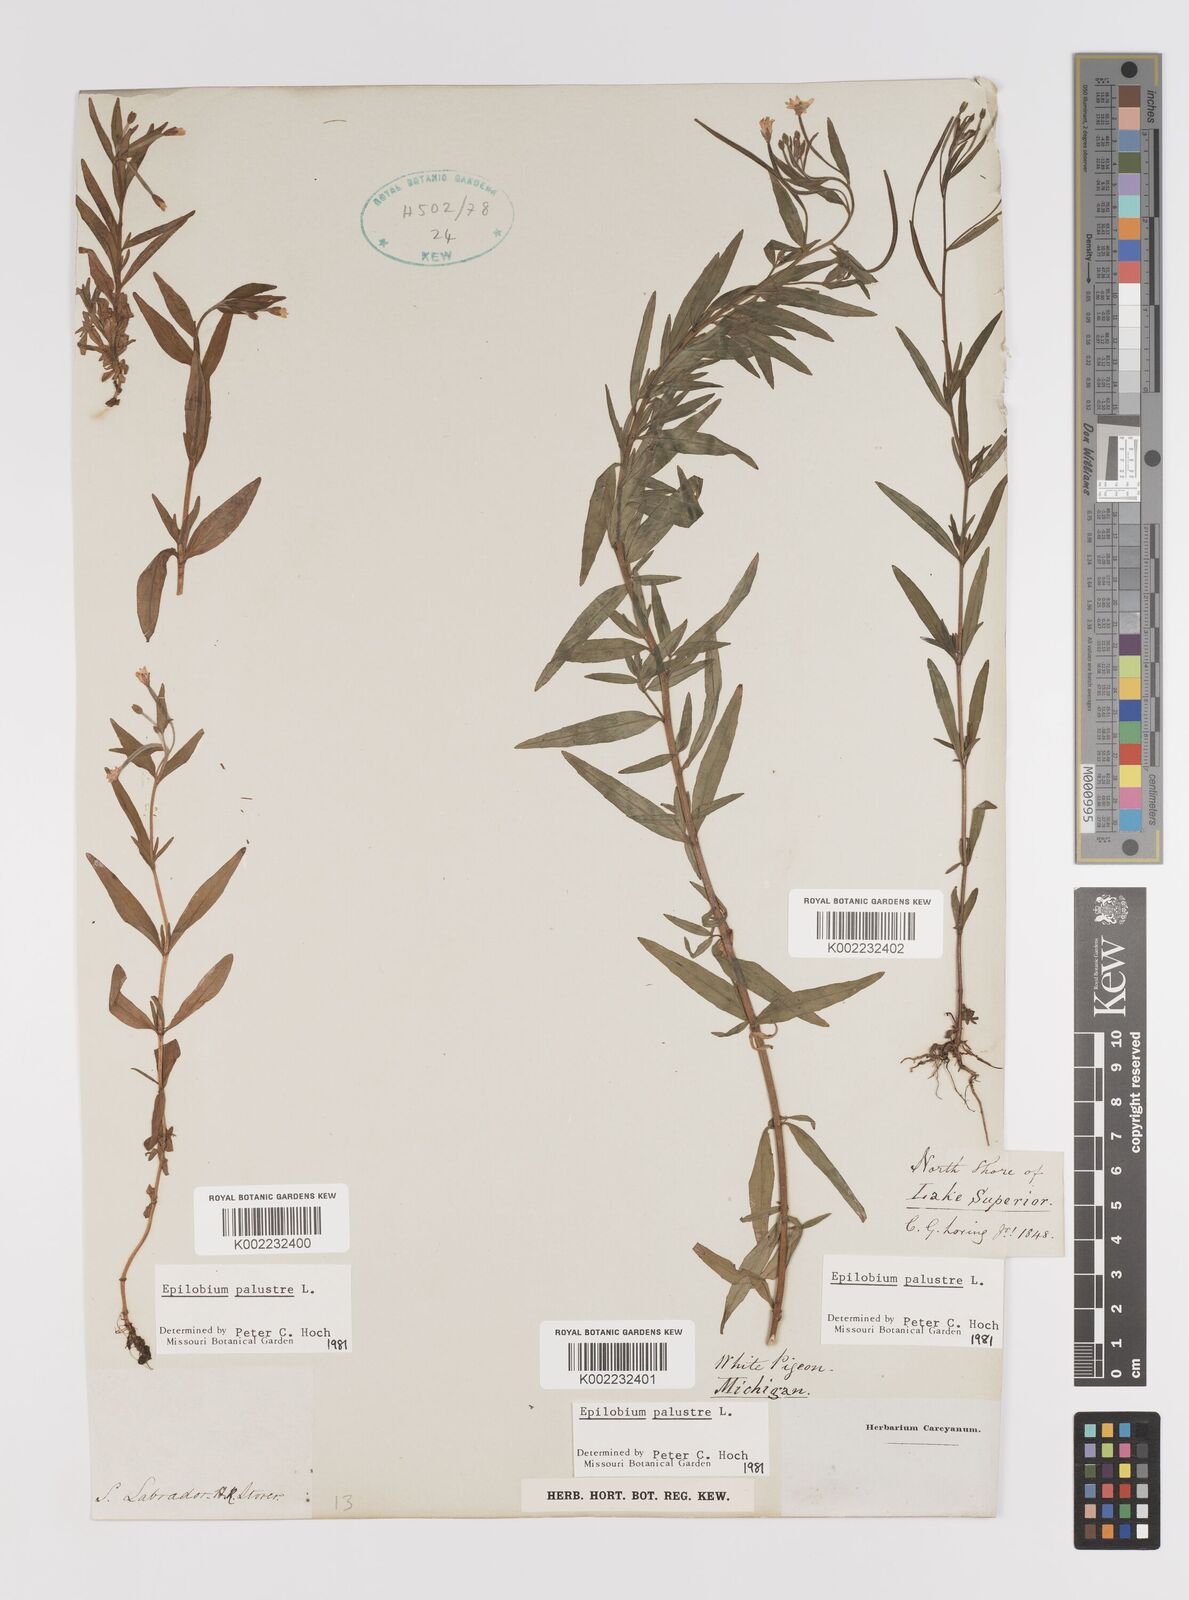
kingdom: Plantae
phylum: Tracheophyta
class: Magnoliopsida
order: Myrtales
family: Onagraceae
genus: Epilobium
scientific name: Epilobium palustre
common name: Marsh willowherb
